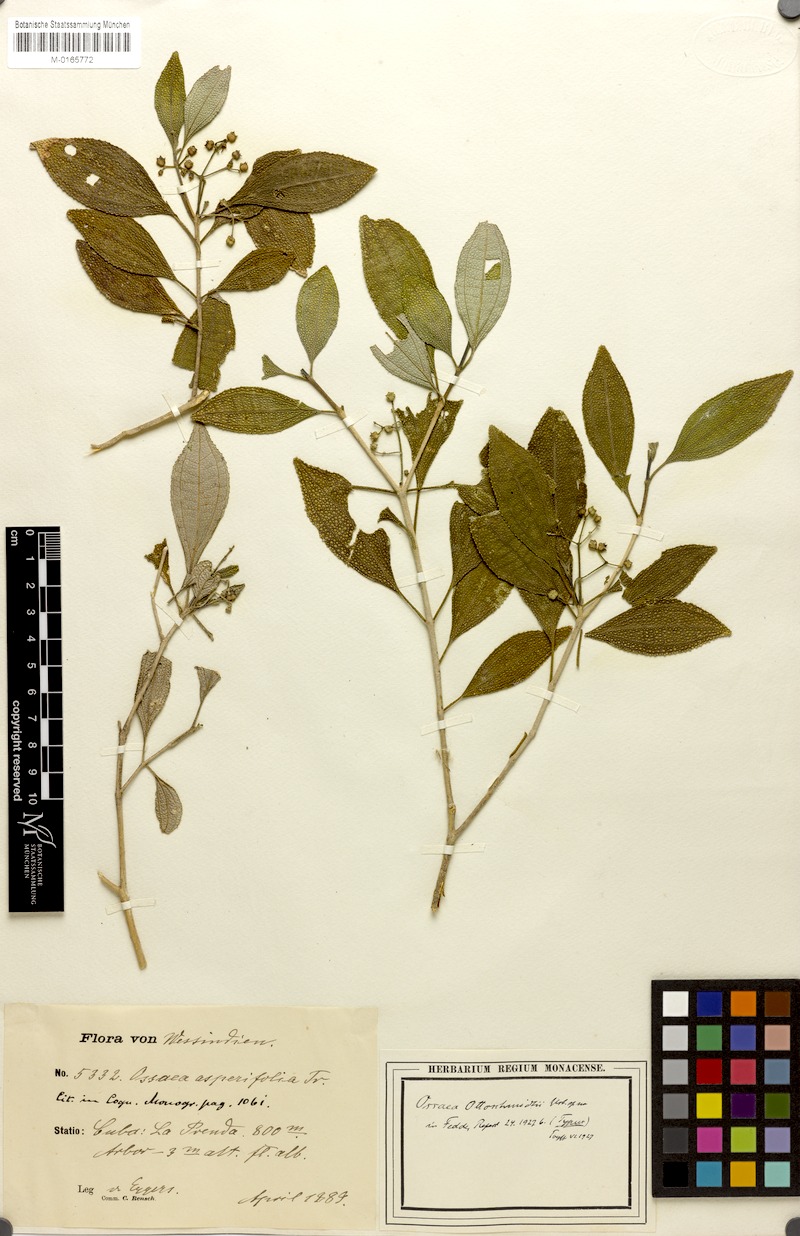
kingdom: Plantae
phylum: Tracheophyta
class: Magnoliopsida
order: Myrtales
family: Melastomataceae
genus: Miconia
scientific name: Miconia ottoschmidtii
